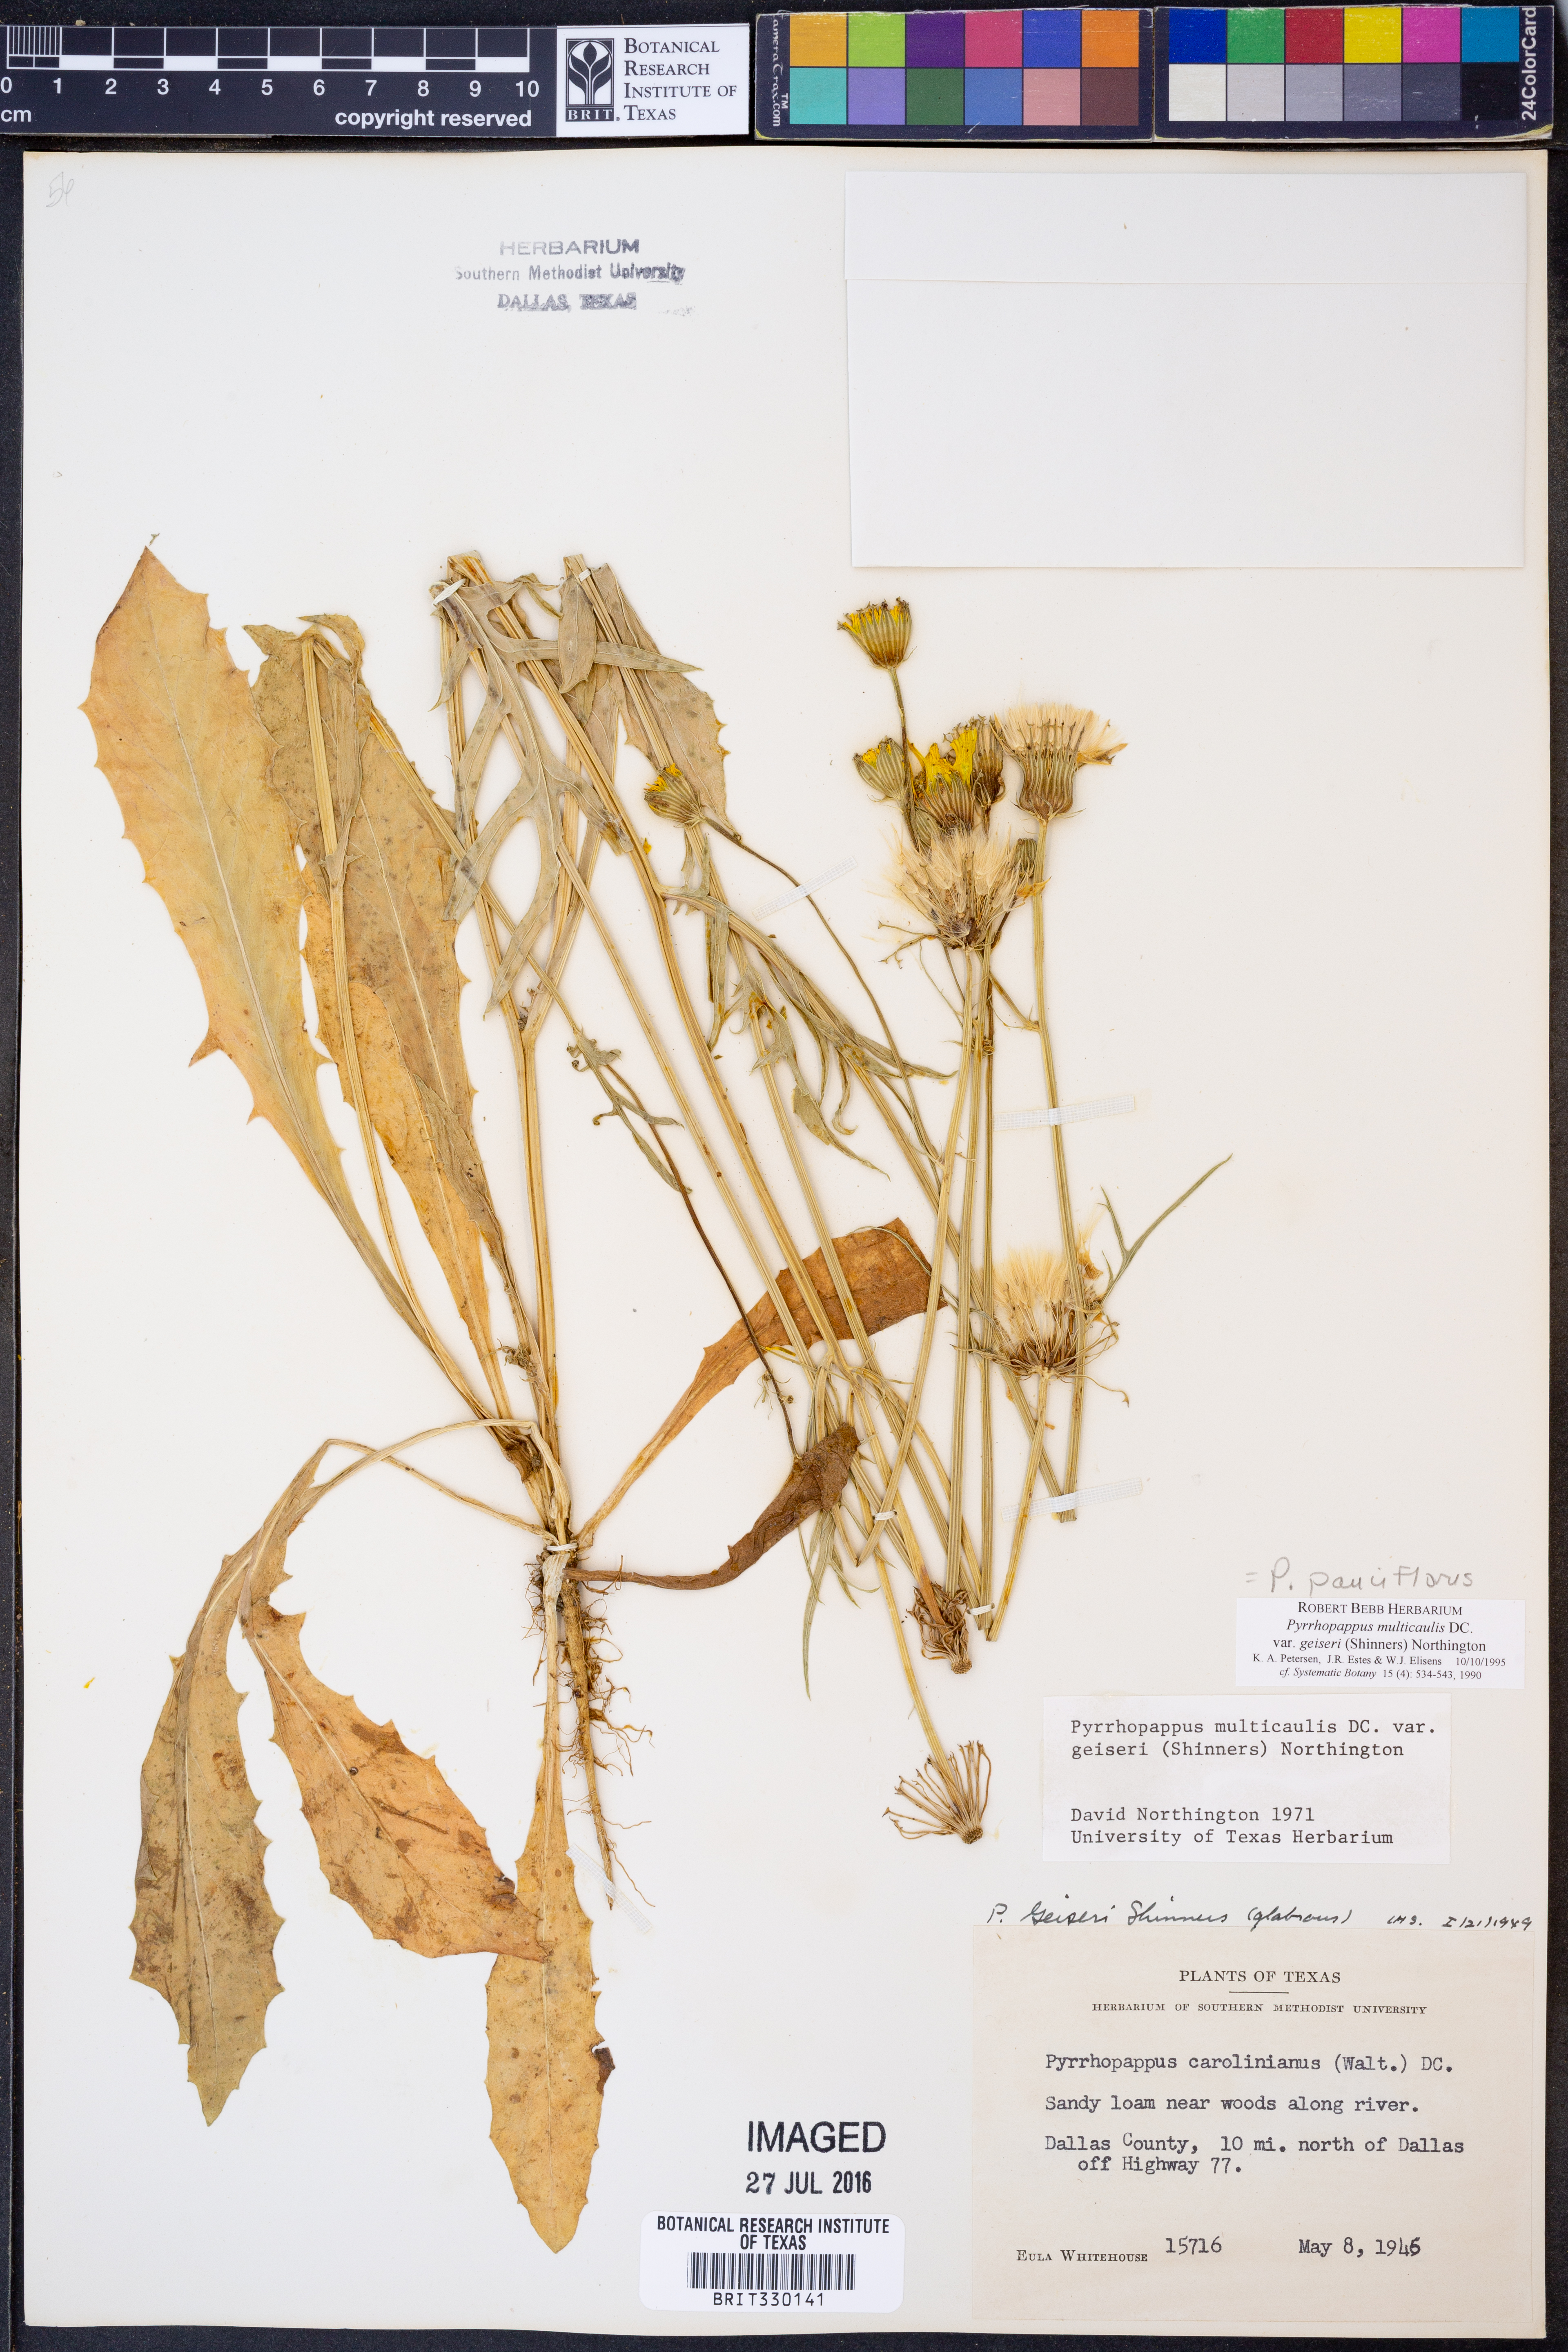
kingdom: Plantae
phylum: Tracheophyta
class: Magnoliopsida
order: Asterales
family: Asteraceae
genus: Pyrrhopappus
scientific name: Pyrrhopappus pauciflorus
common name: Texas false dandelion
